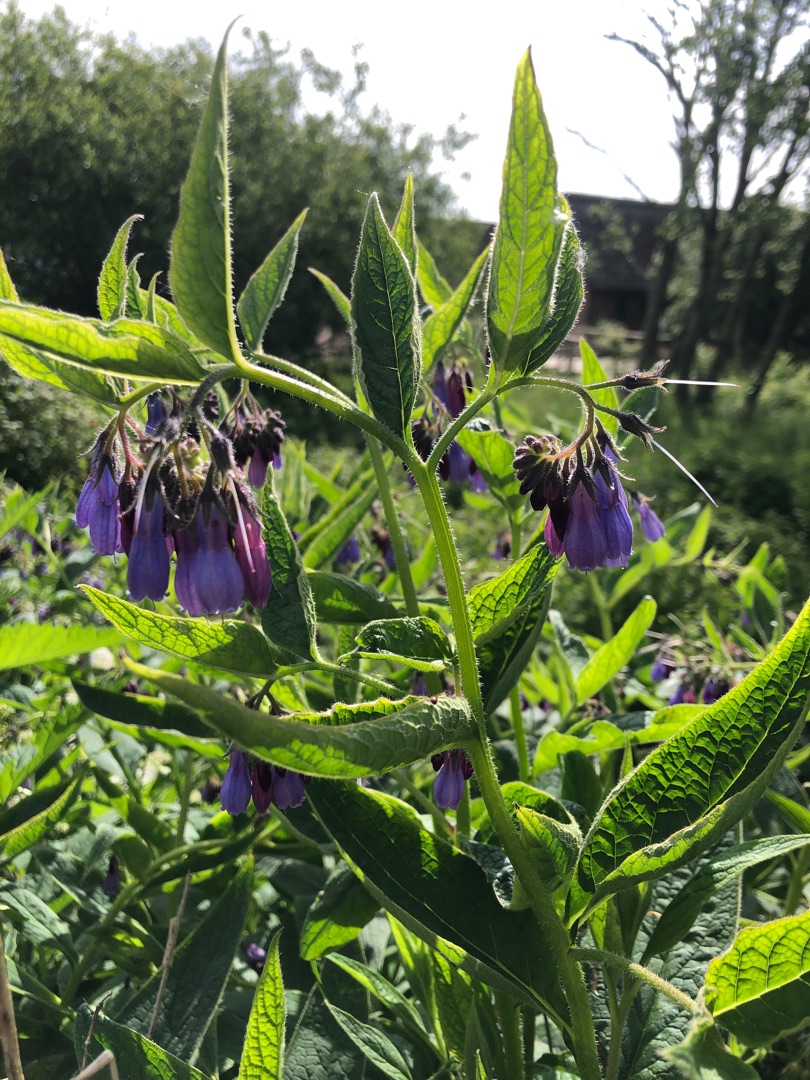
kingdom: Plantae
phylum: Tracheophyta
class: Magnoliopsida
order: Boraginales
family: Boraginaceae
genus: Symphytum
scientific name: Symphytum uplandicum
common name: Foder-kulsukker
